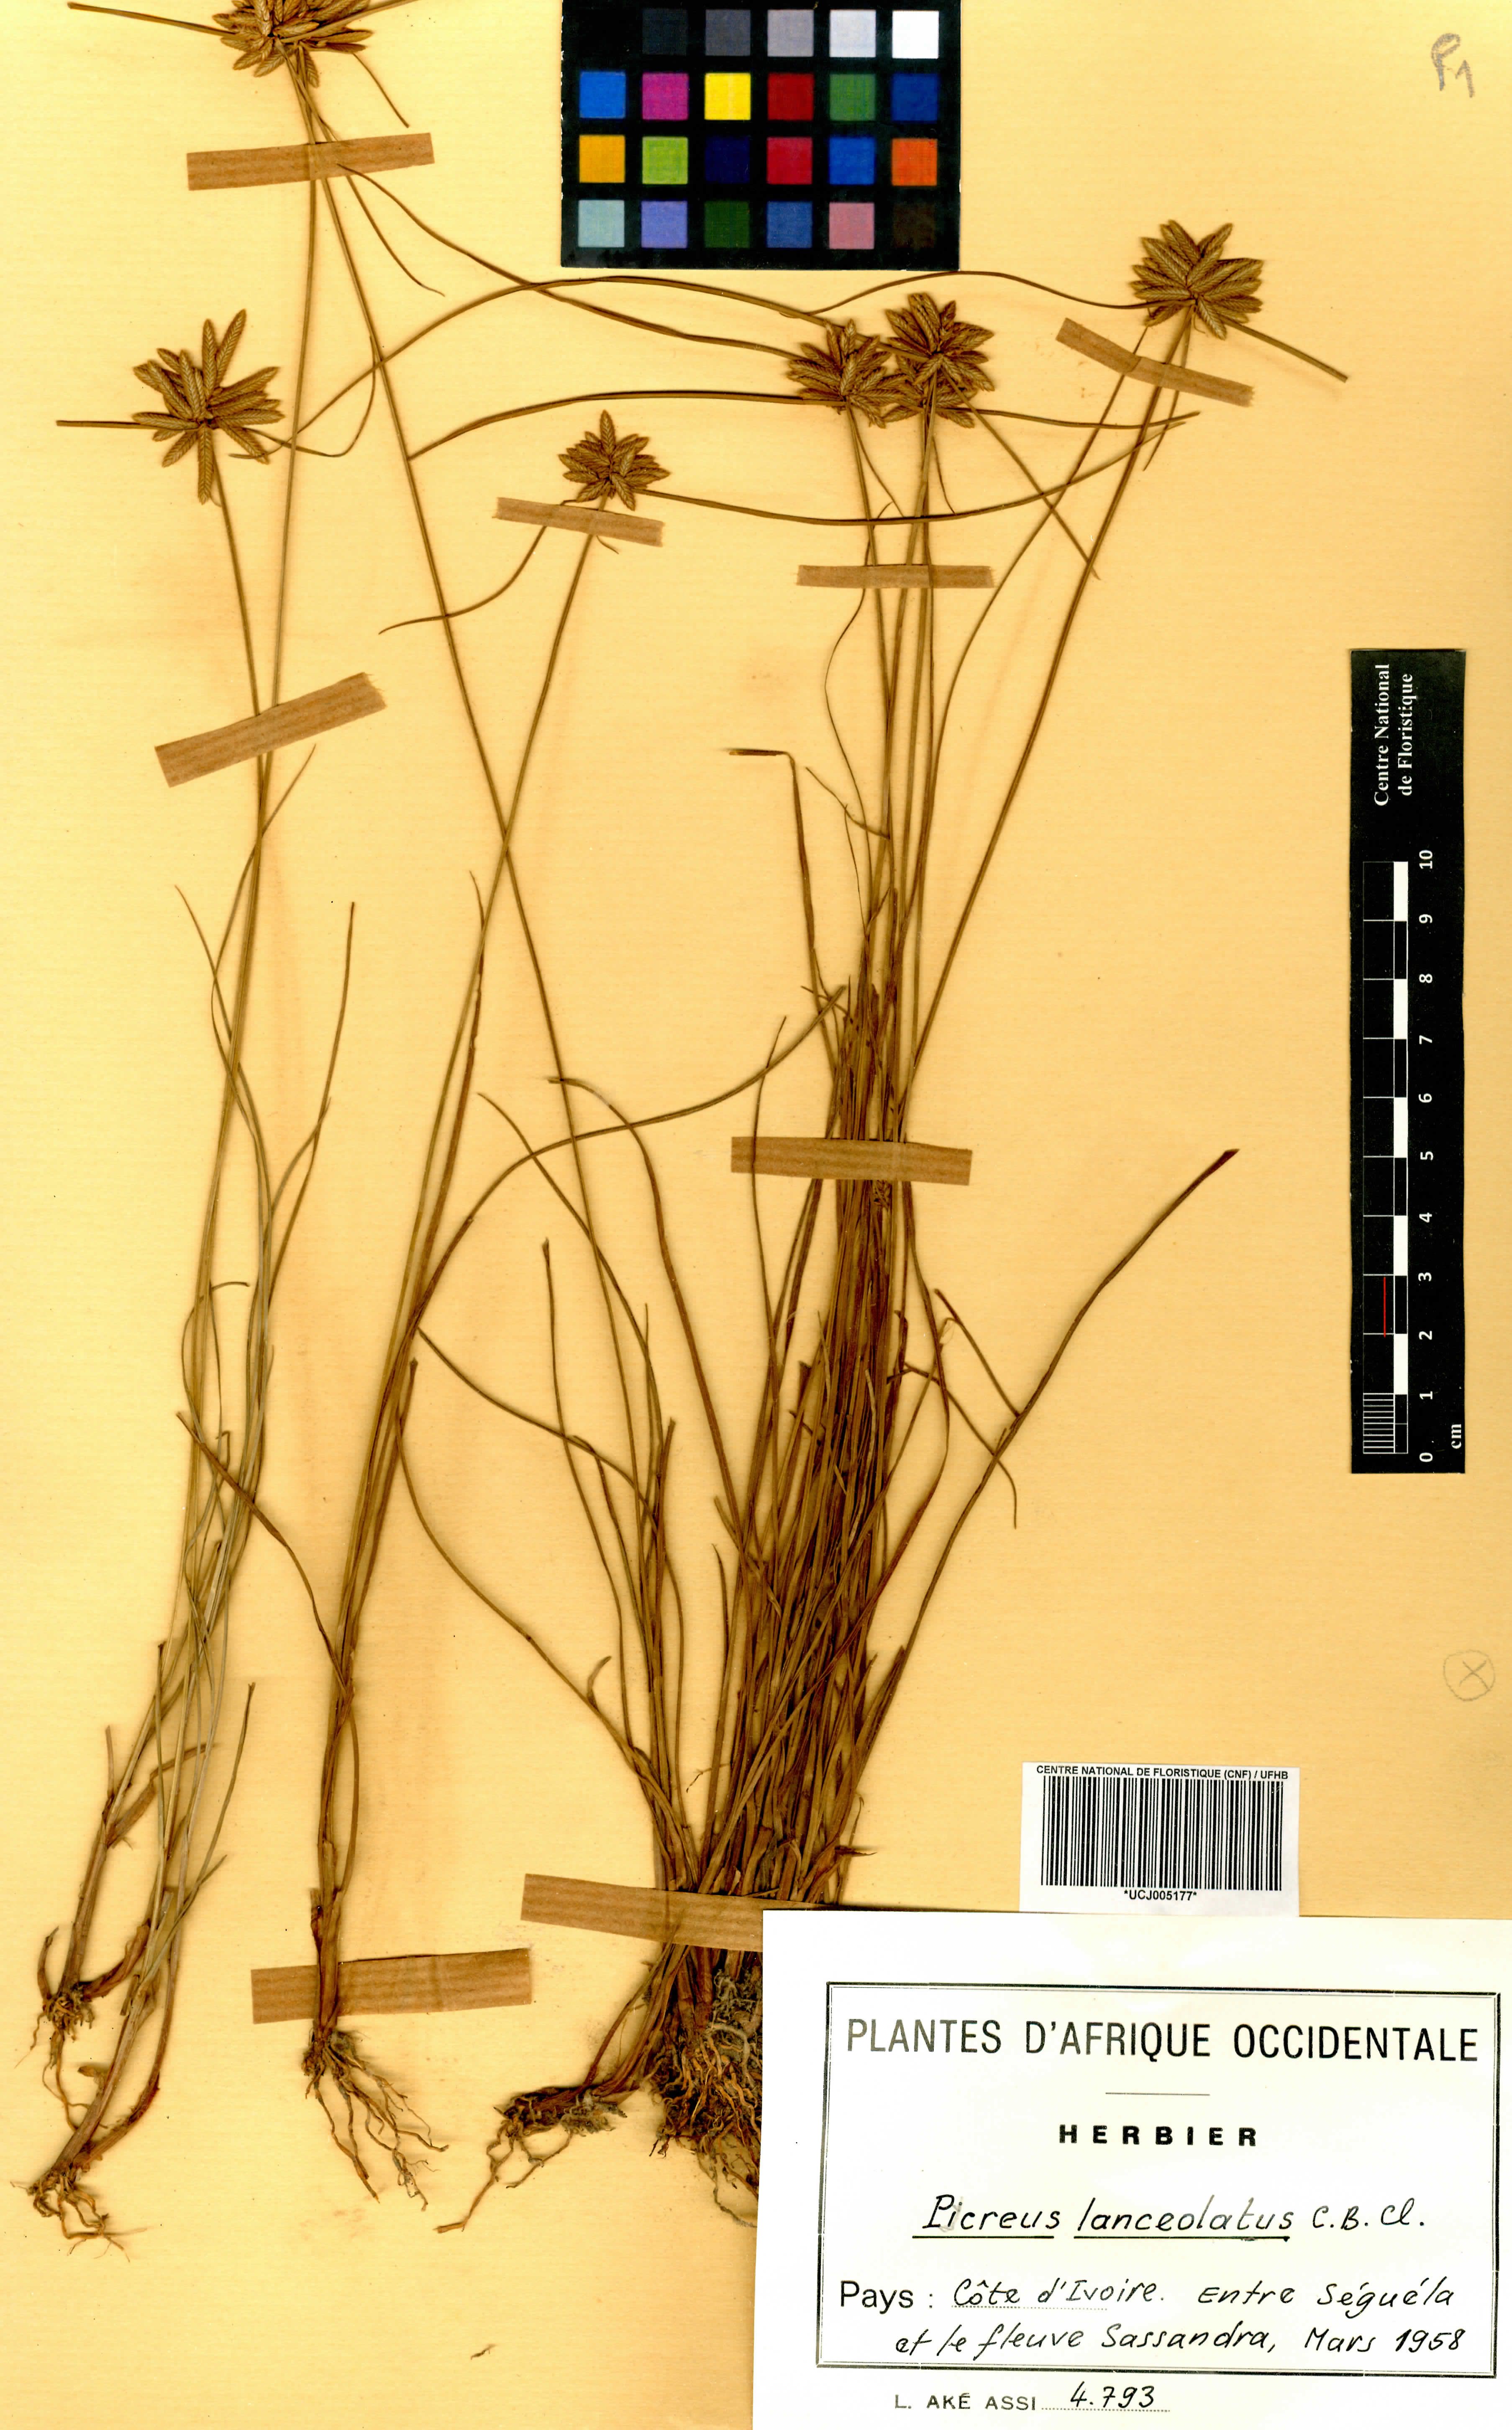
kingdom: Plantae
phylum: Tracheophyta
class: Liliopsida
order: Poales
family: Cyperaceae
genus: Cyperus
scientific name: Cyperus lanceolatus
